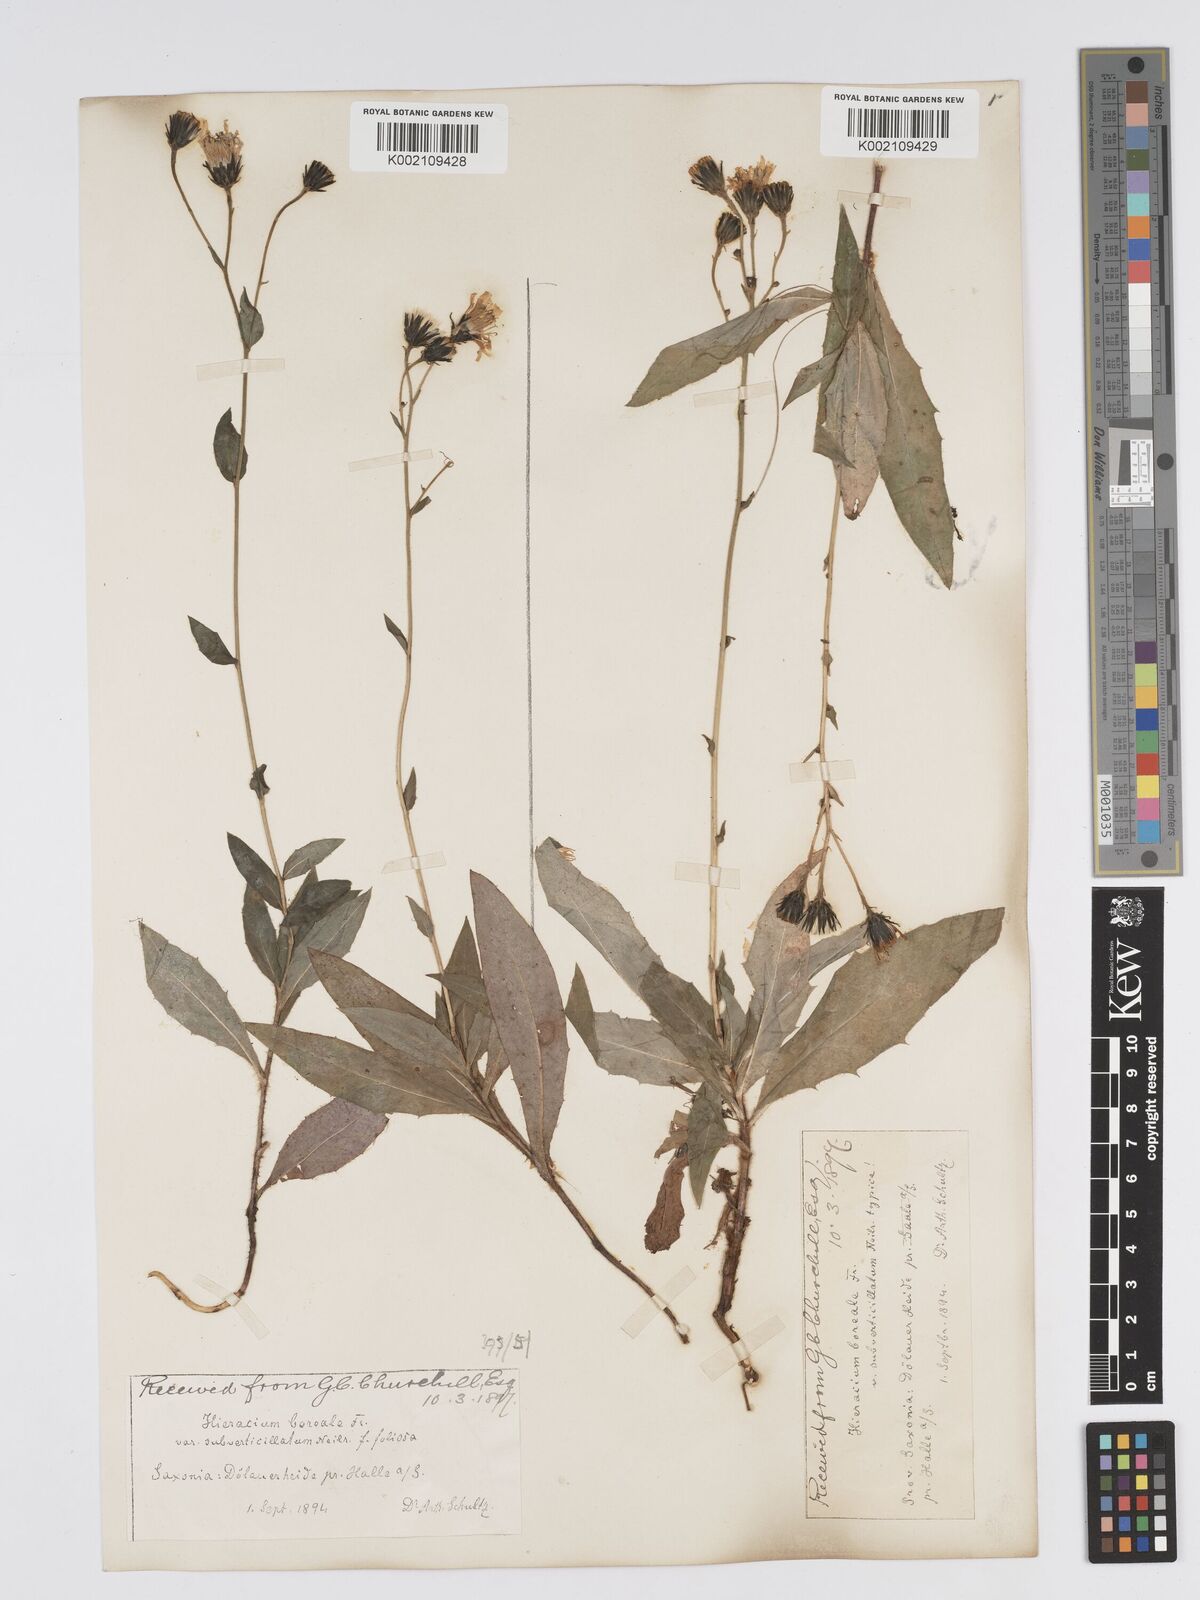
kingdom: Plantae
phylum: Tracheophyta
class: Magnoliopsida
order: Asterales
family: Asteraceae
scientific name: Asteraceae
